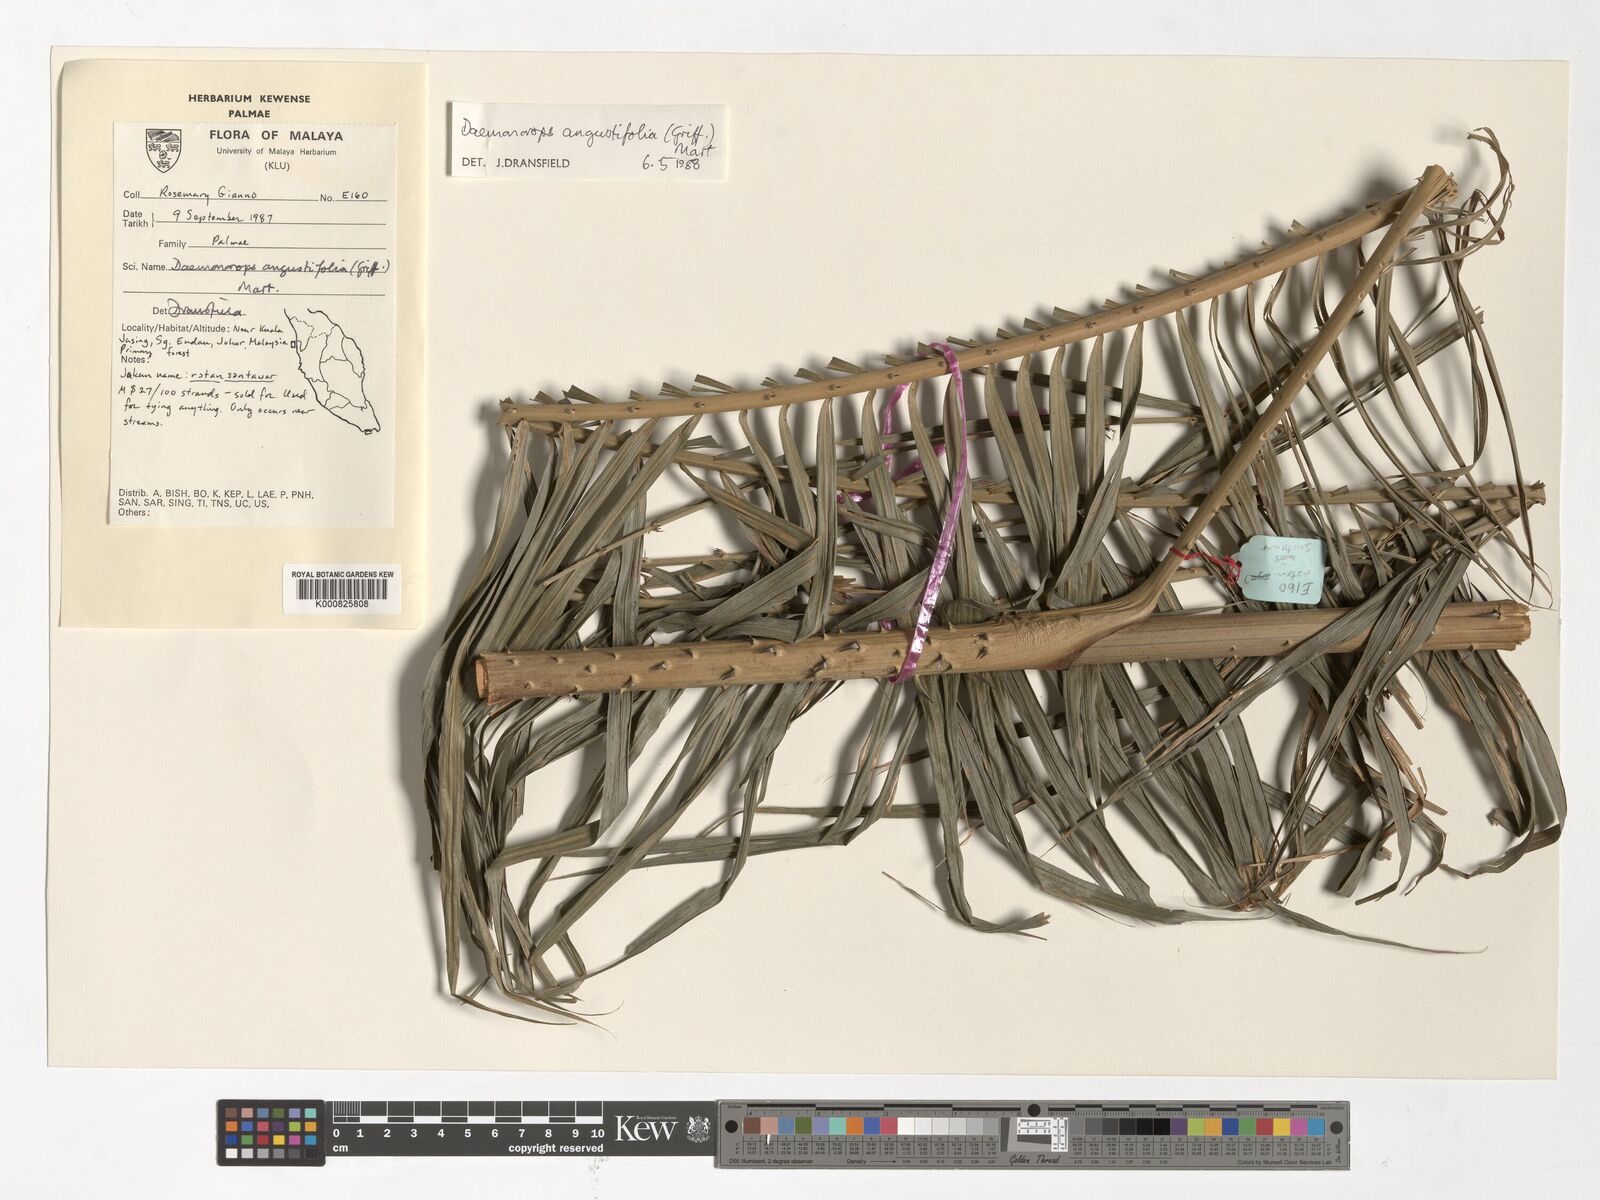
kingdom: Plantae
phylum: Tracheophyta
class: Liliopsida
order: Arecales
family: Arecaceae
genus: Calamus
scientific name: Calamus melanochaetes
